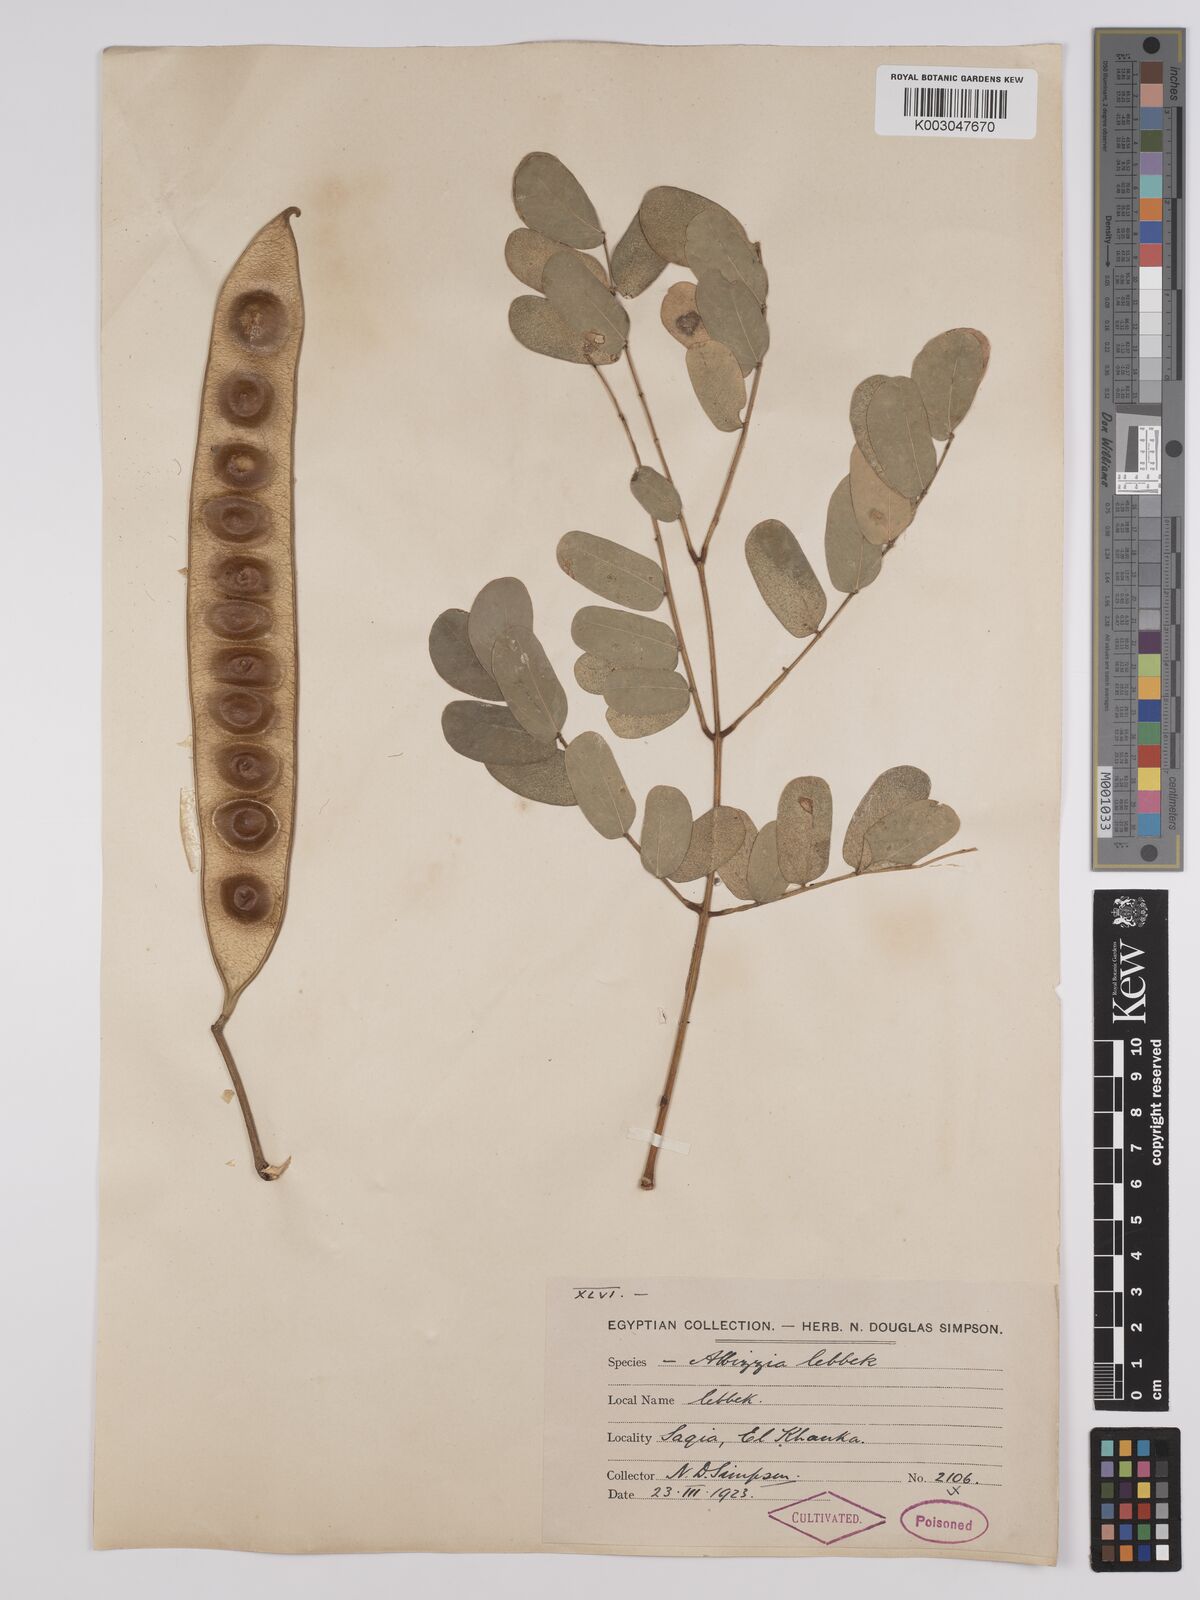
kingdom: Plantae
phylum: Tracheophyta
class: Magnoliopsida
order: Fabales
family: Fabaceae
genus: Albizia
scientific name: Albizia lebbeck
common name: Woman's tongue
